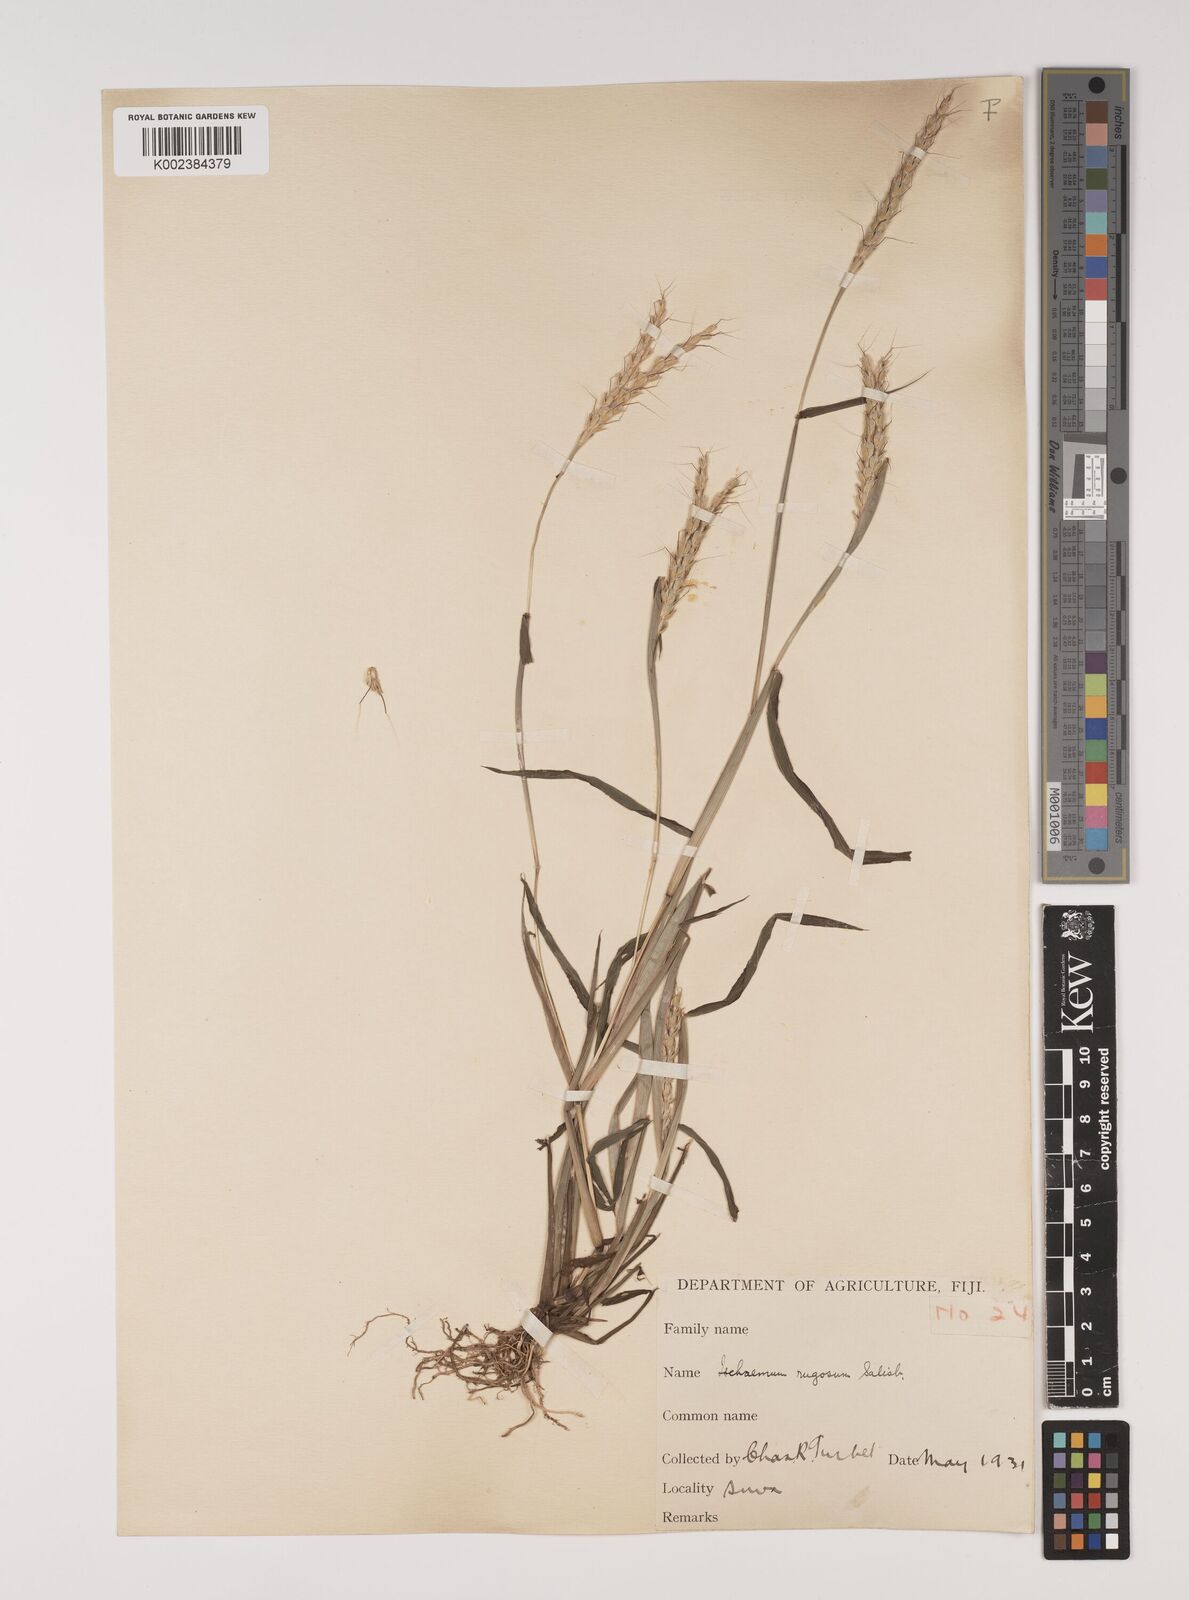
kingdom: Plantae
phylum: Tracheophyta
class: Liliopsida
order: Poales
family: Poaceae
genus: Ischaemum
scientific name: Ischaemum rugosum
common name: Saramatta grass
